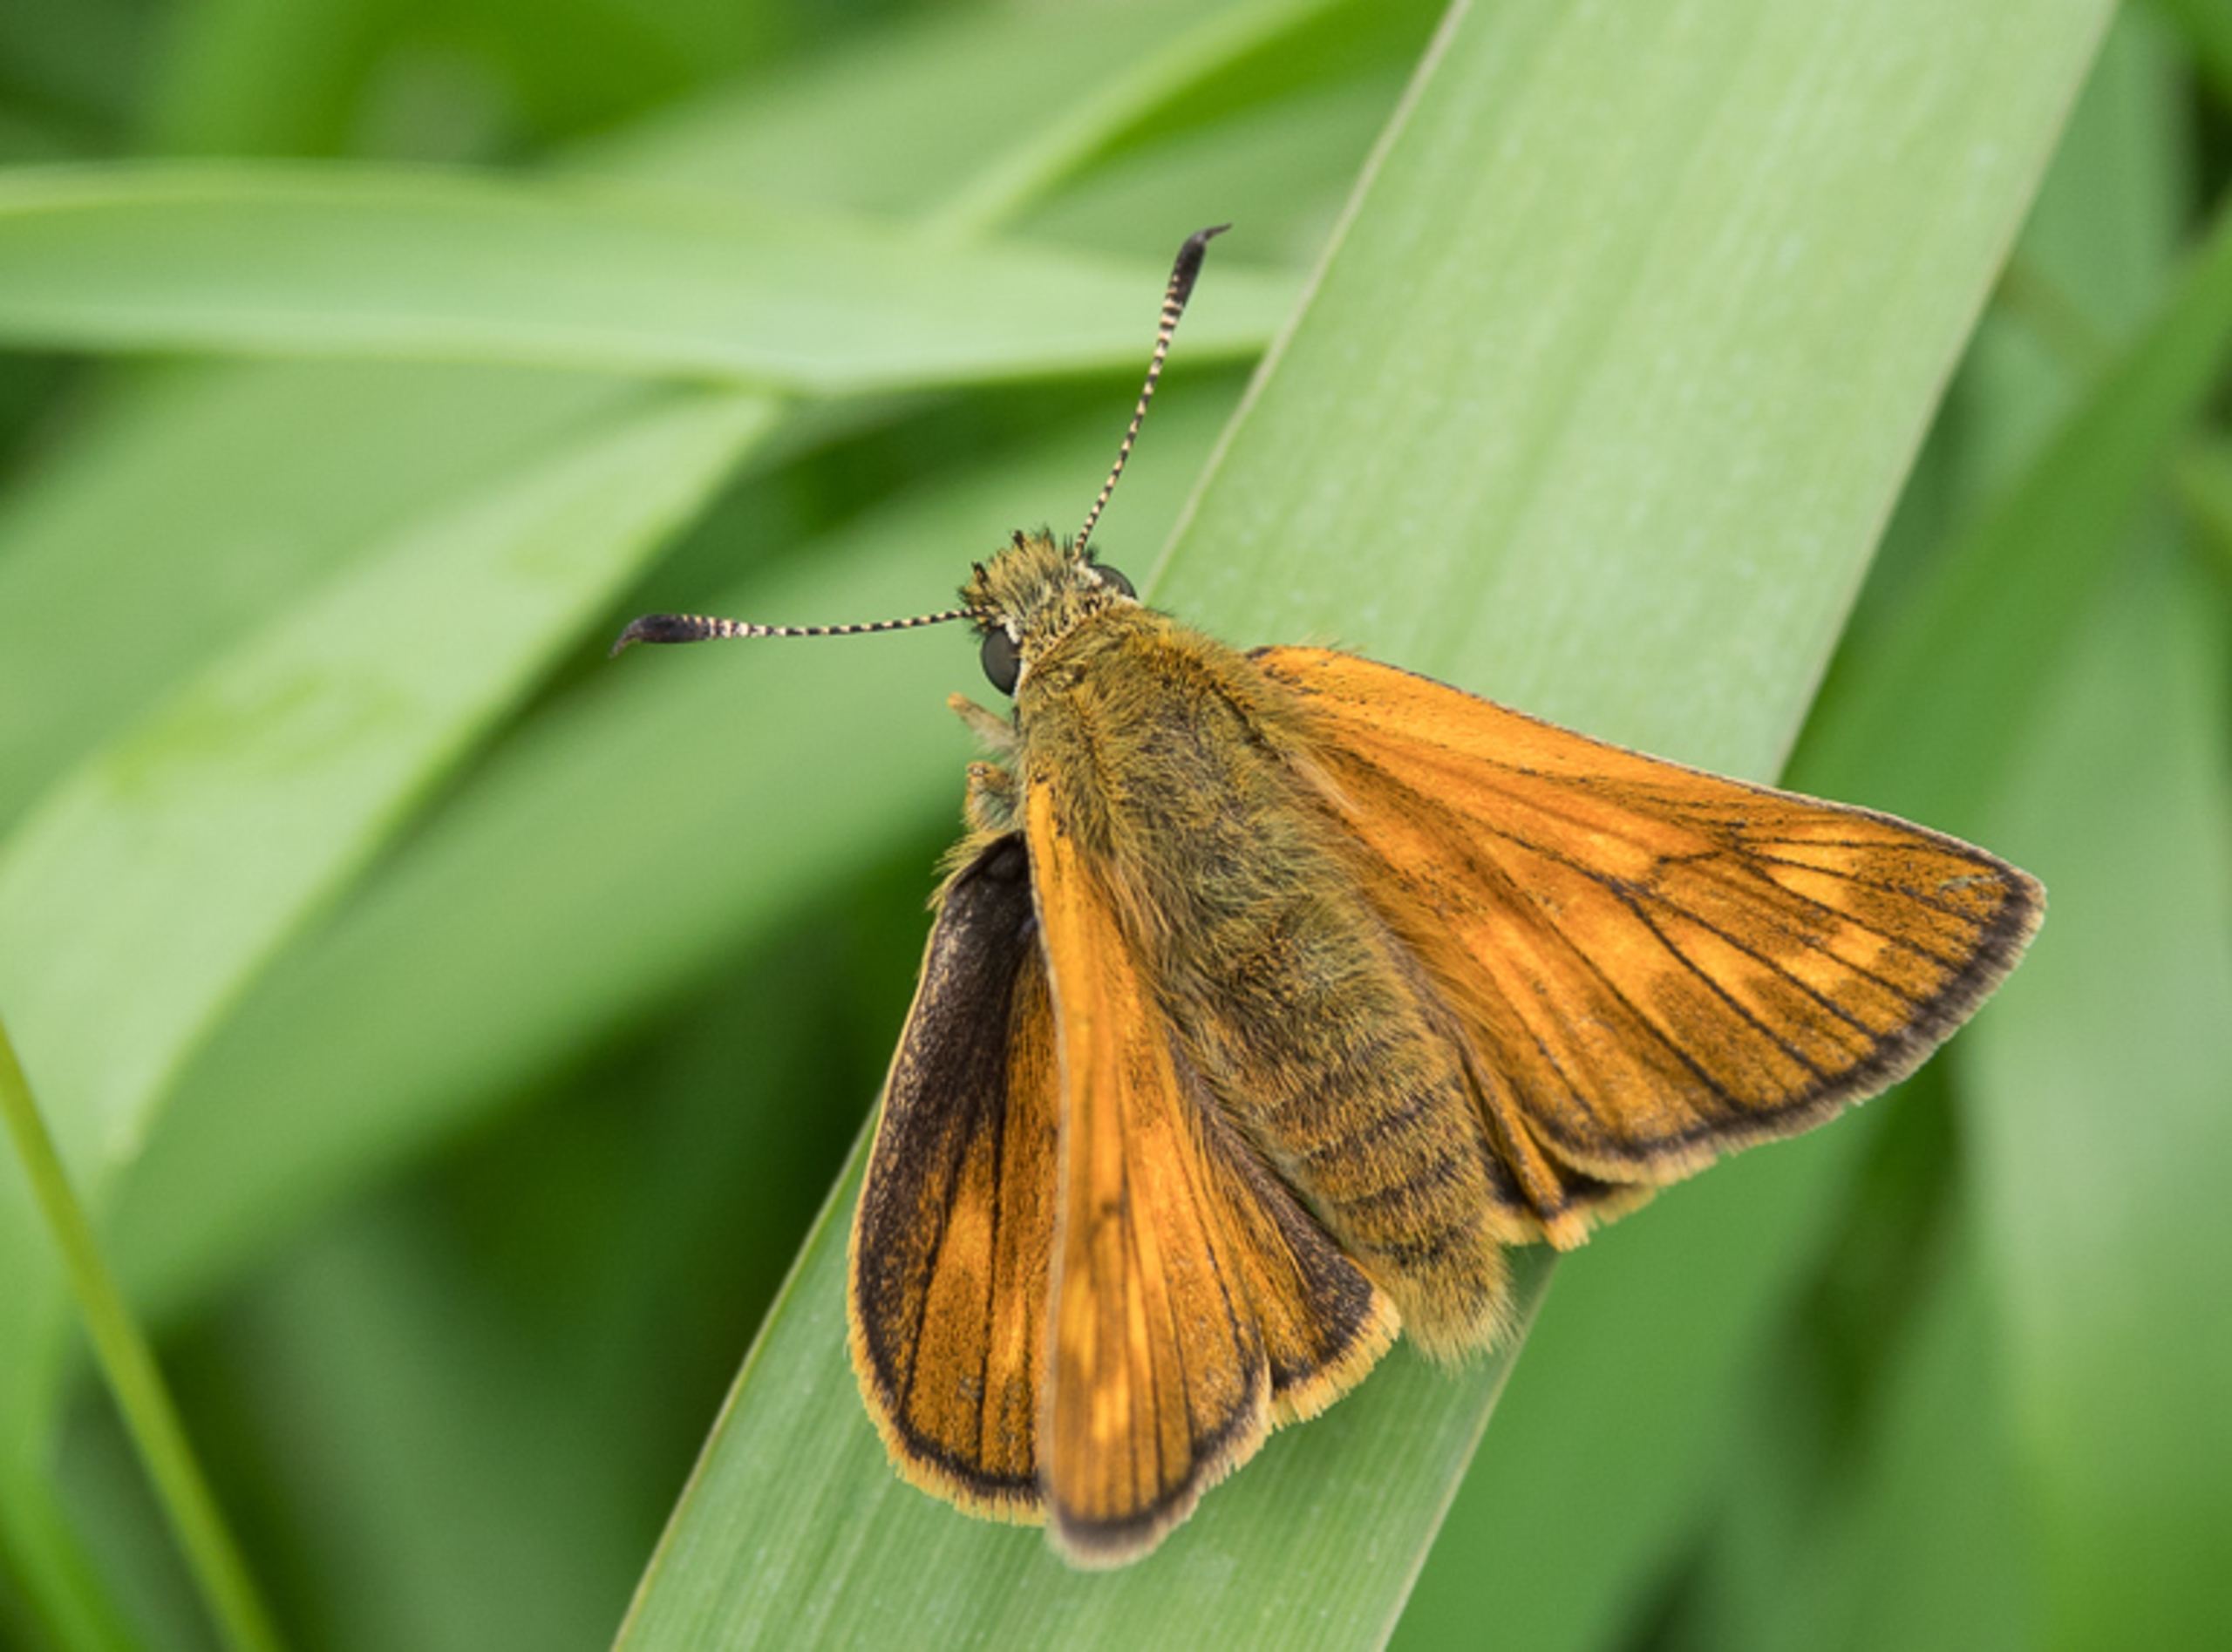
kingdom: Animalia
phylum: Arthropoda
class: Insecta
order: Lepidoptera
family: Hesperiidae
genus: Ochlodes
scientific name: Ochlodes venata
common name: Stor bredpande
